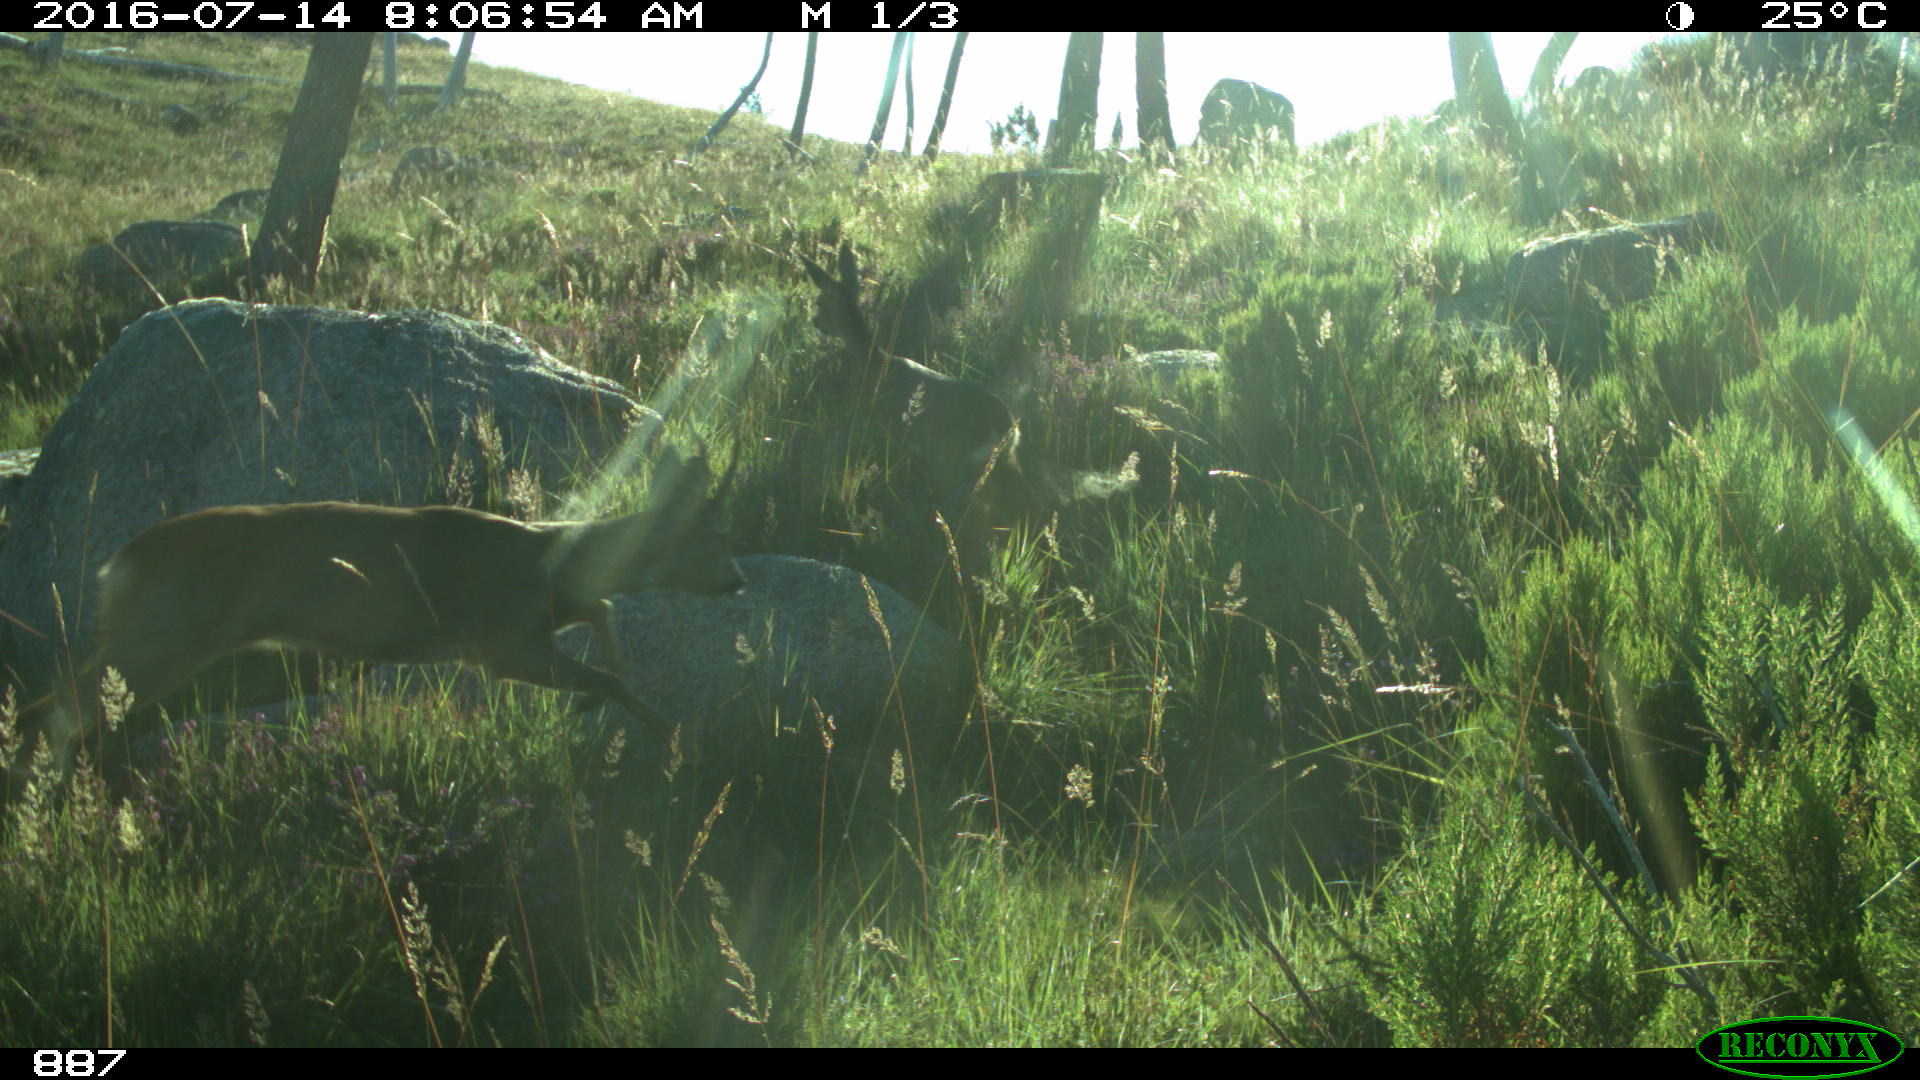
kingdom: Animalia
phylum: Chordata
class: Mammalia
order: Artiodactyla
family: Cervidae
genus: Capreolus
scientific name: Capreolus capreolus
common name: Western roe deer
